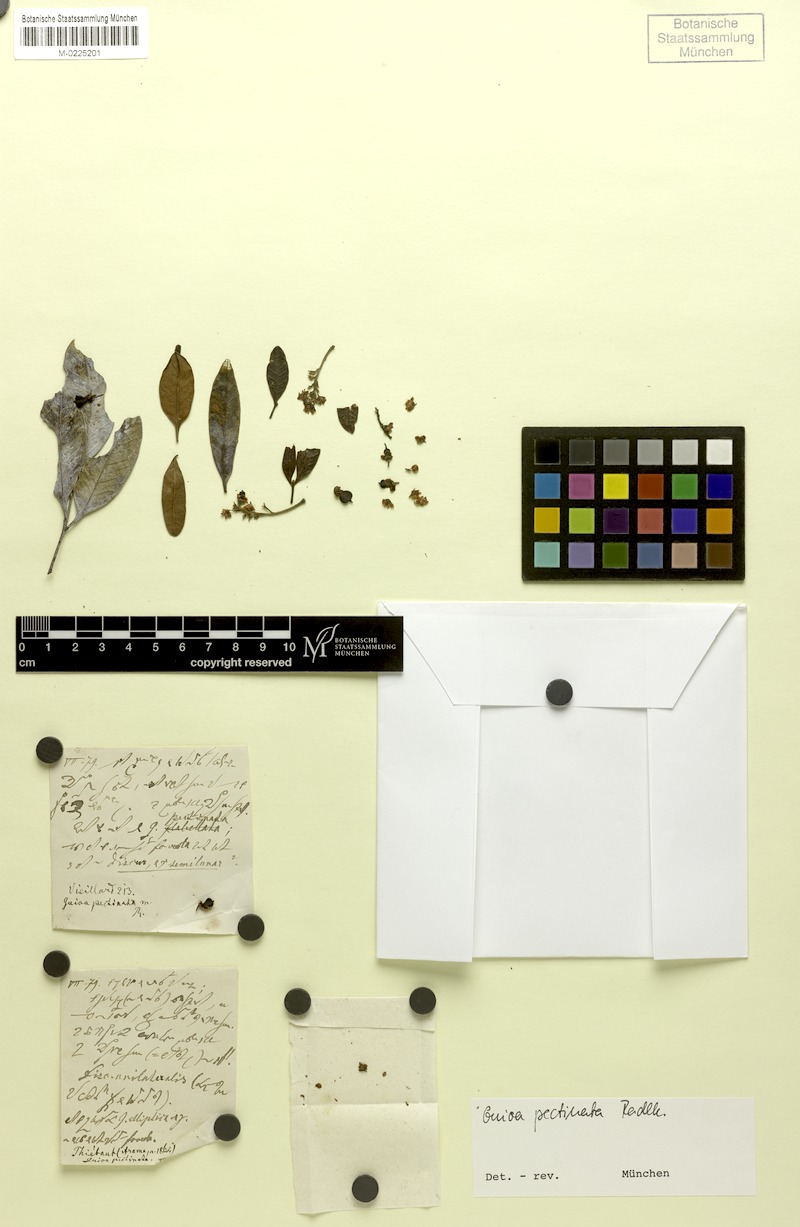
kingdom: Plantae
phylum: Tracheophyta
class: Magnoliopsida
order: Sapindales
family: Sapindaceae
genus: Guioa
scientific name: Guioa pectinata
